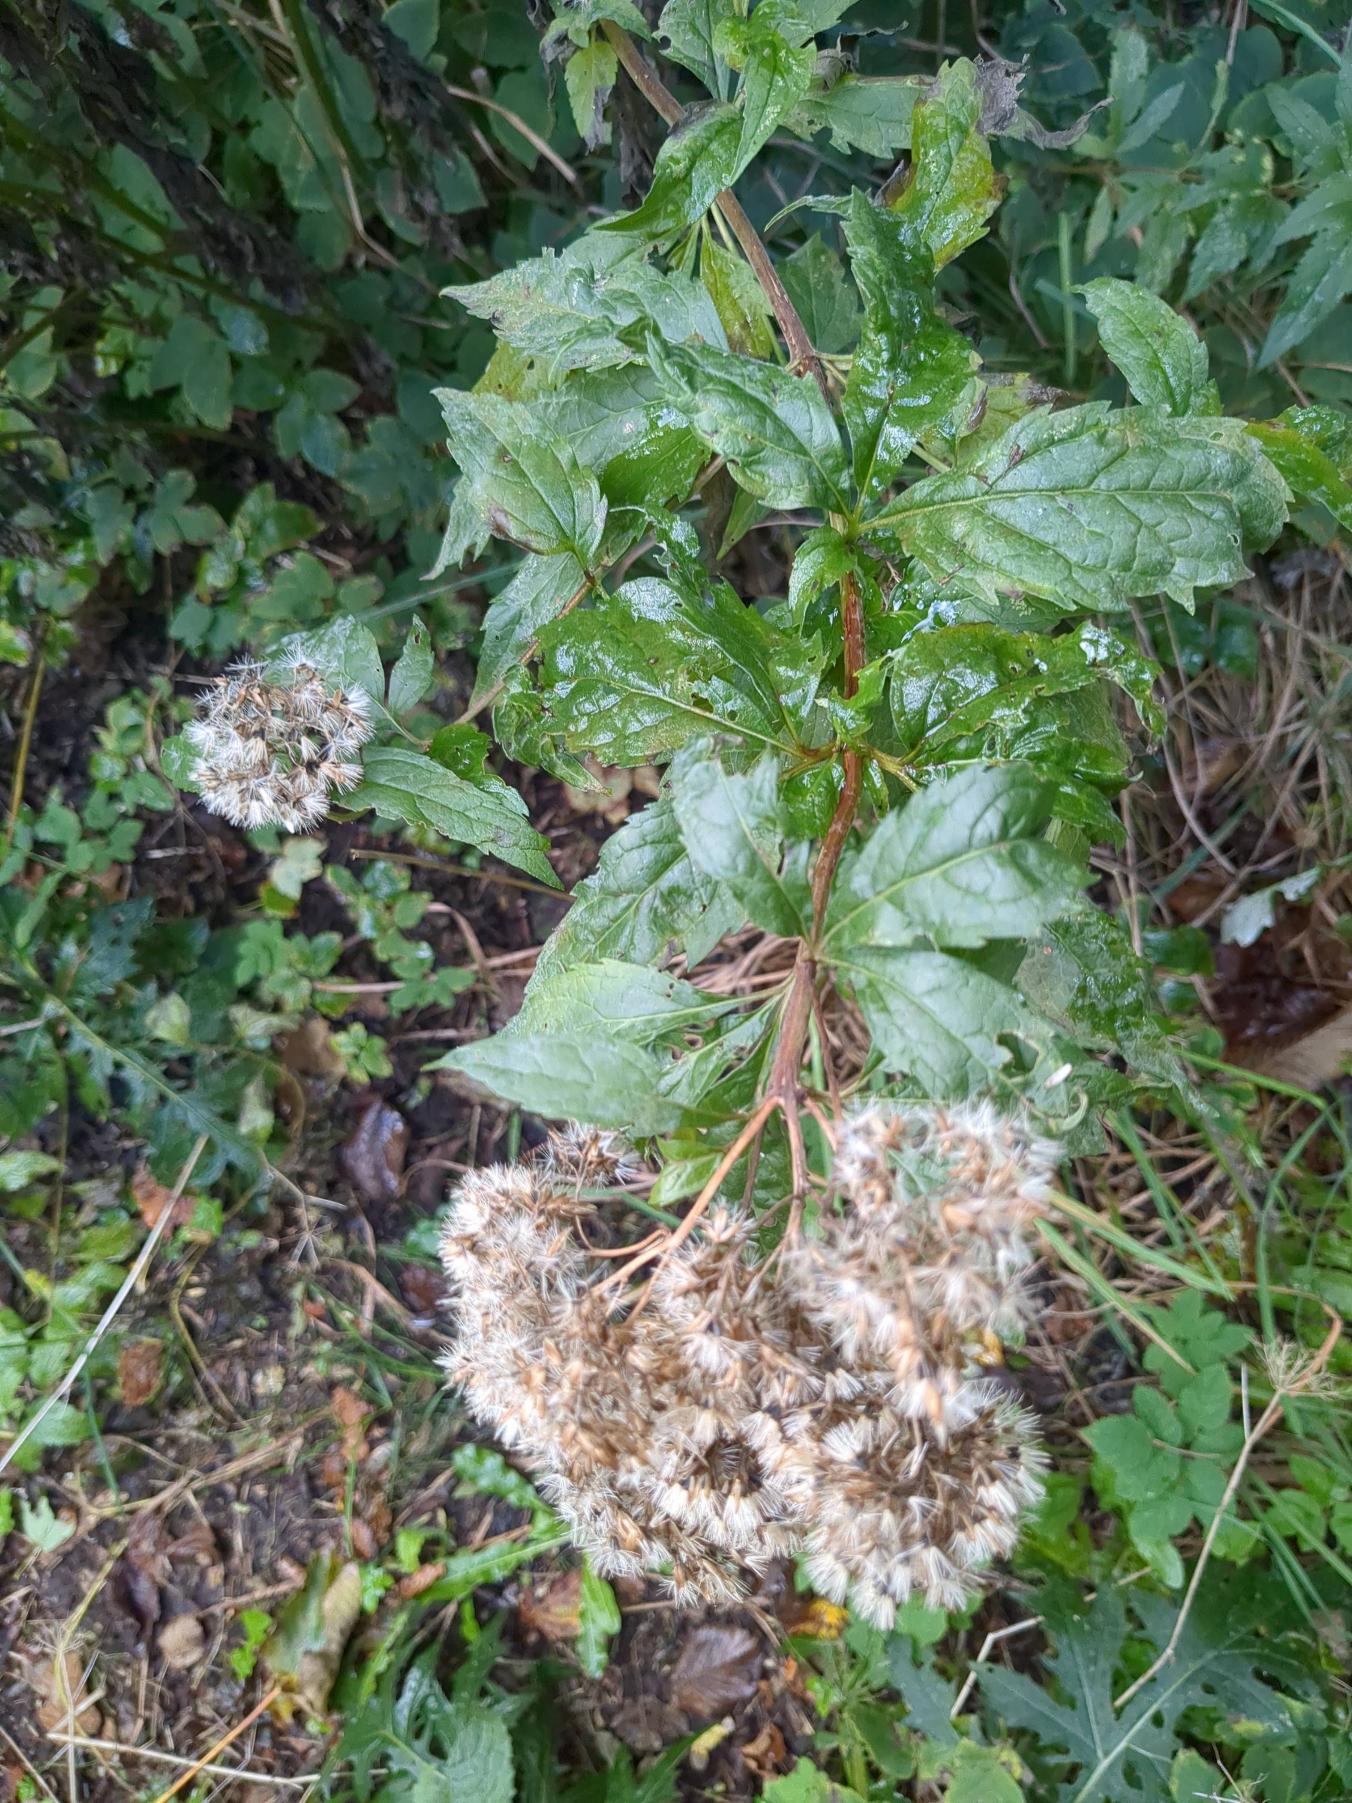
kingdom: Plantae
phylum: Tracheophyta
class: Magnoliopsida
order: Asterales
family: Asteraceae
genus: Eupatorium
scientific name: Eupatorium cannabinum
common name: Hjortetrøst
